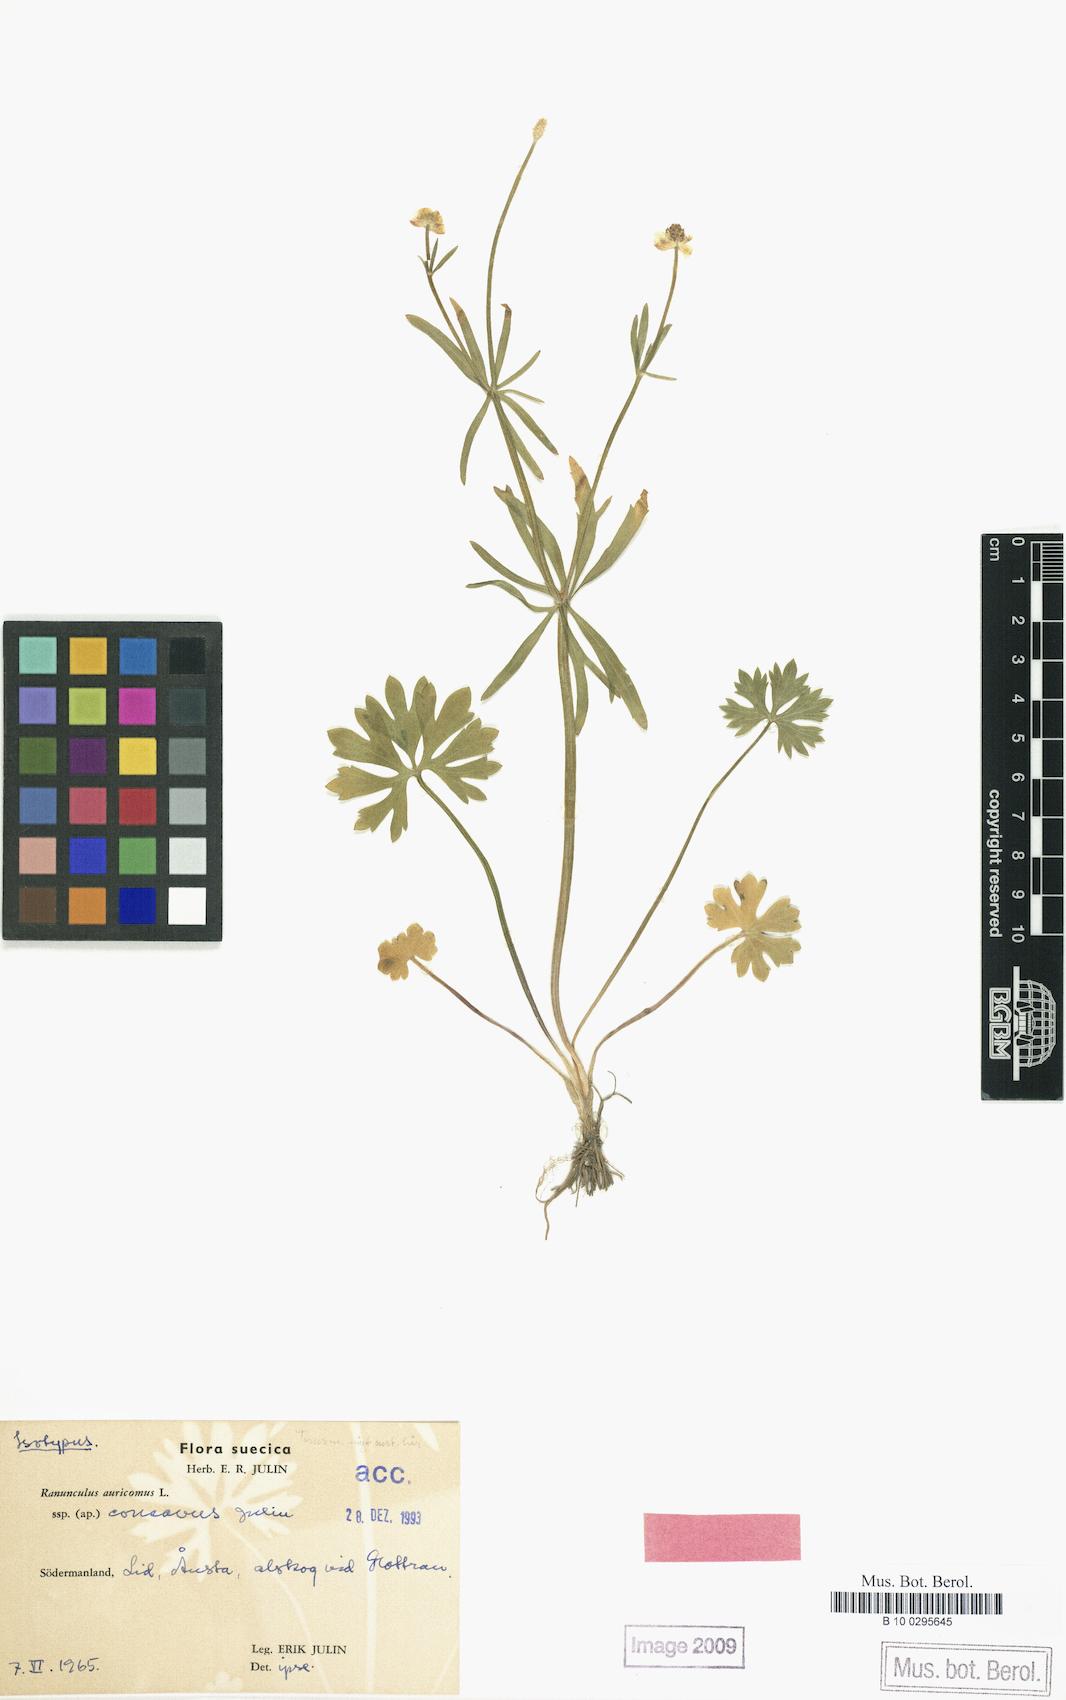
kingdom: Plantae
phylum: Tracheophyta
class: Magnoliopsida
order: Ranunculales
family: Ranunculaceae
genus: Ranunculus
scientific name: Ranunculus concavus
